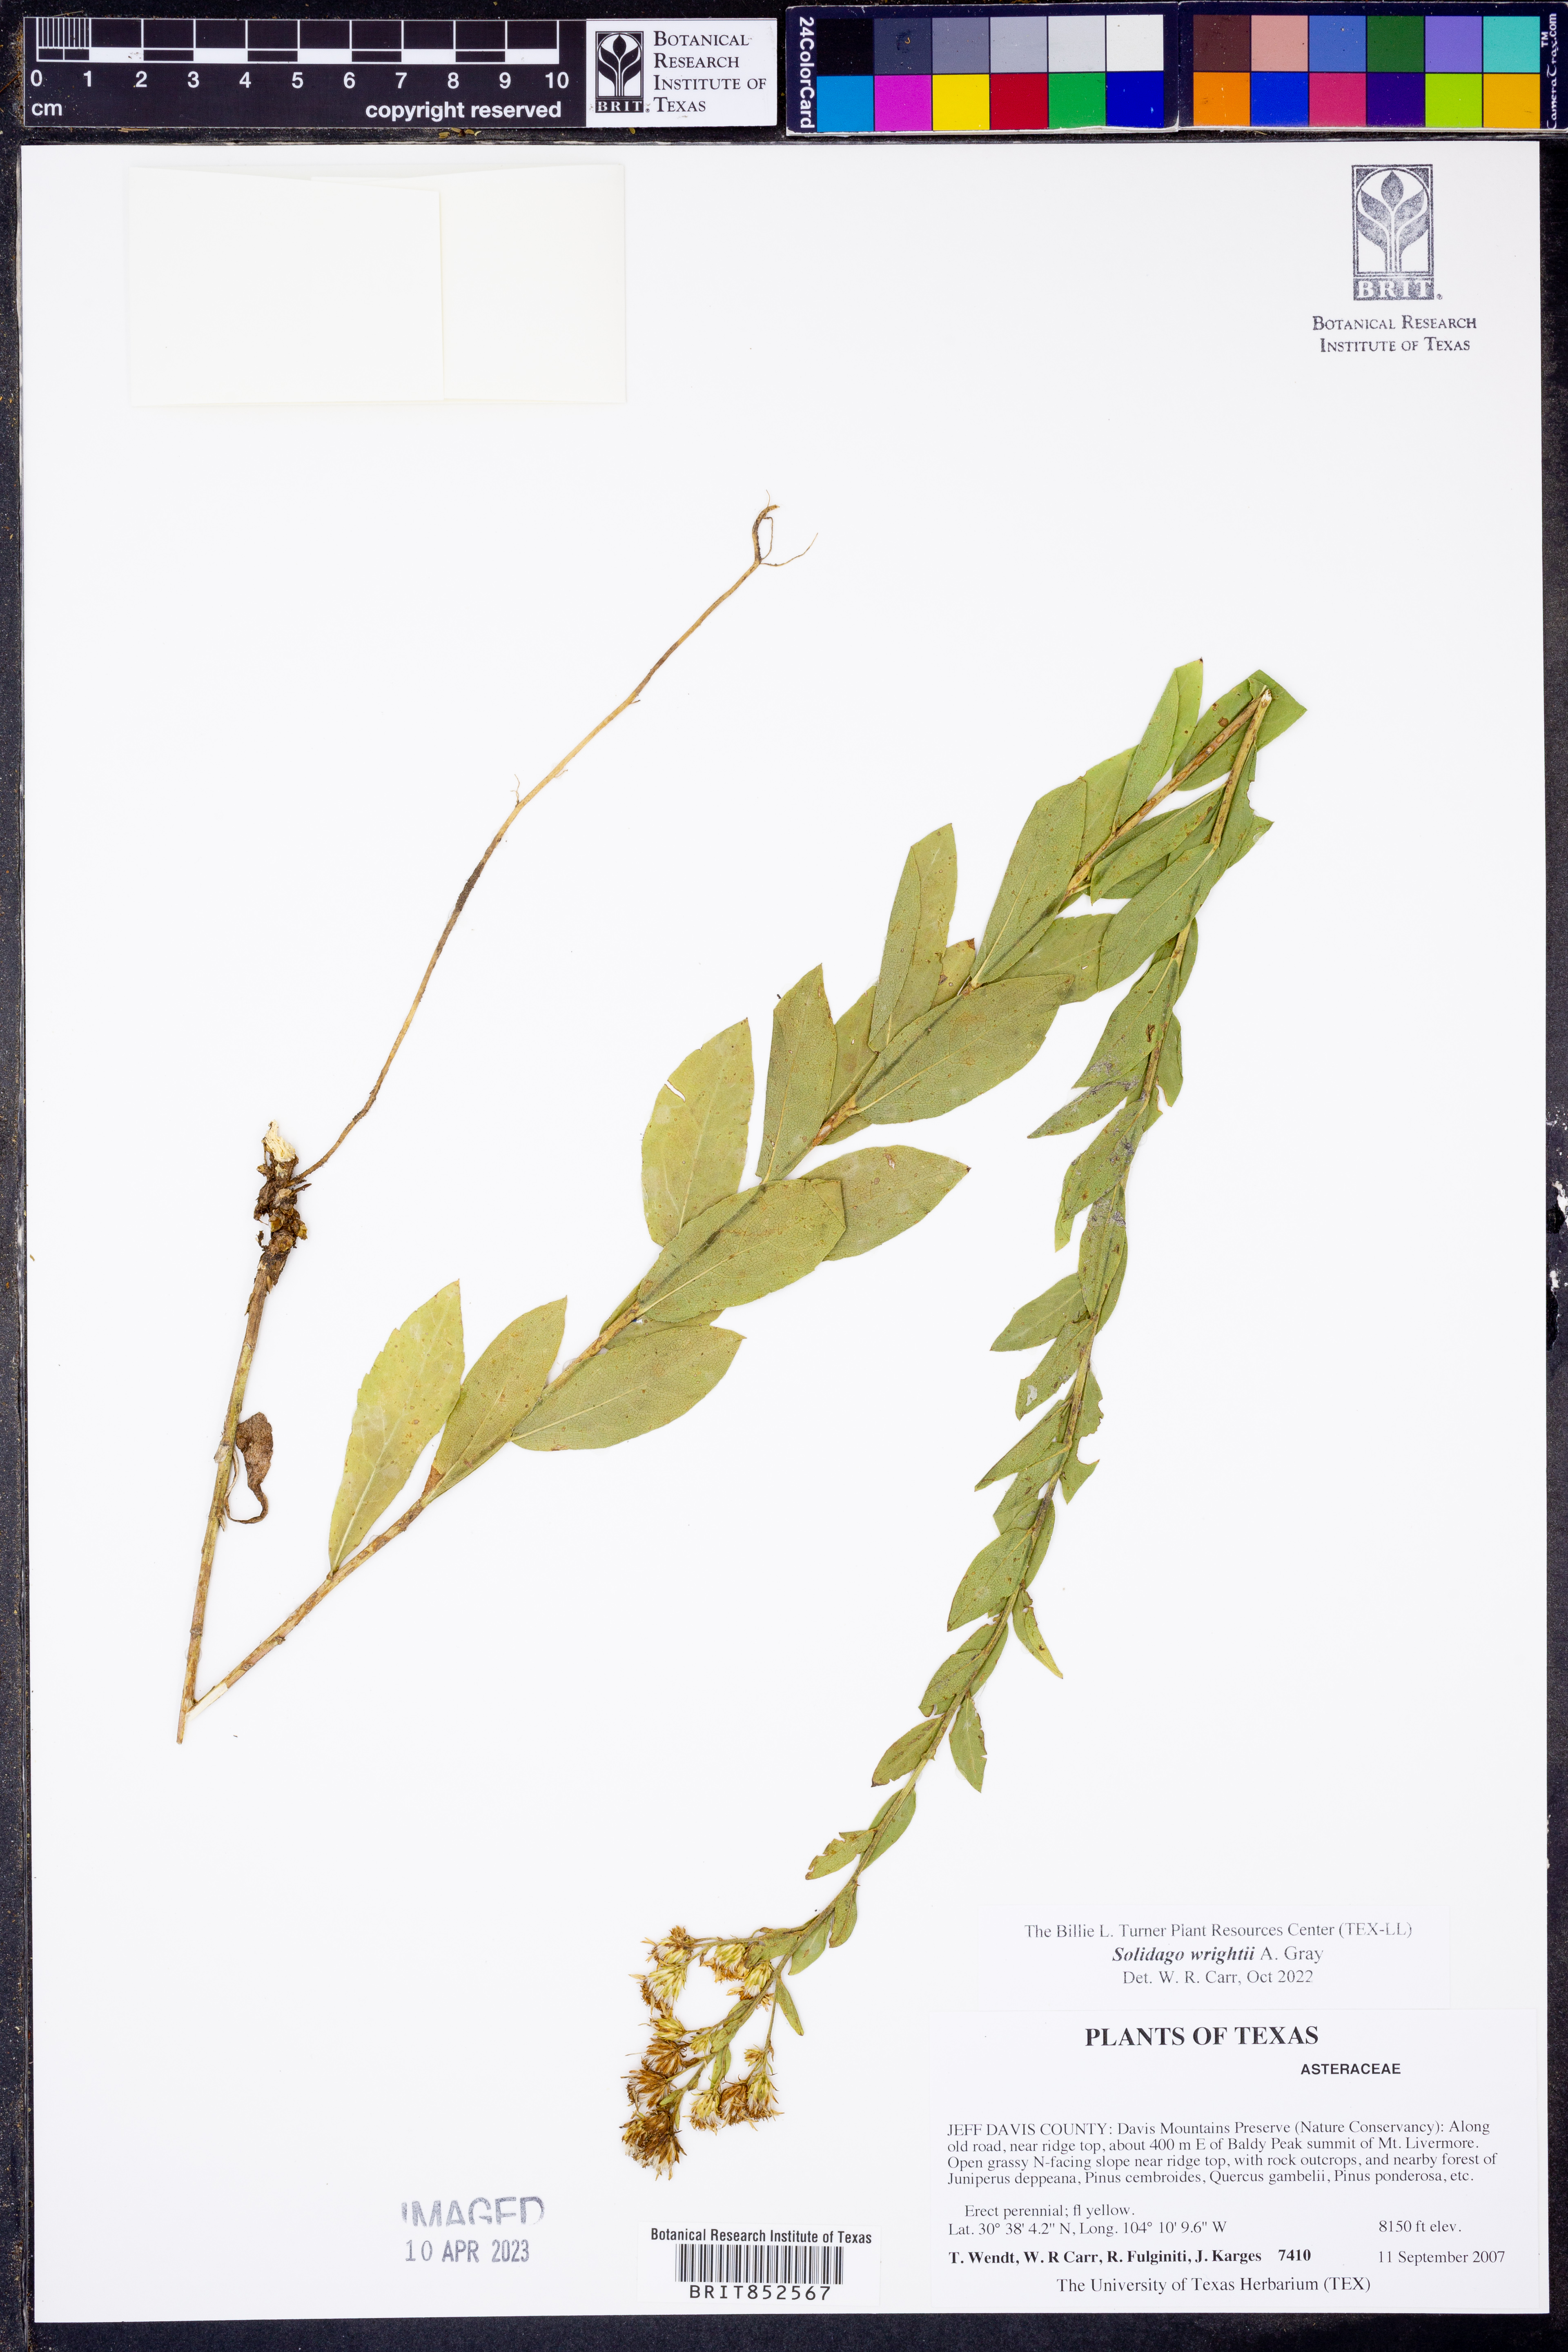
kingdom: Plantae
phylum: Tracheophyta
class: Magnoliopsida
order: Asterales
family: Asteraceae
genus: Solidago
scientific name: Solidago wrightii
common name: Wright's goldenrod
